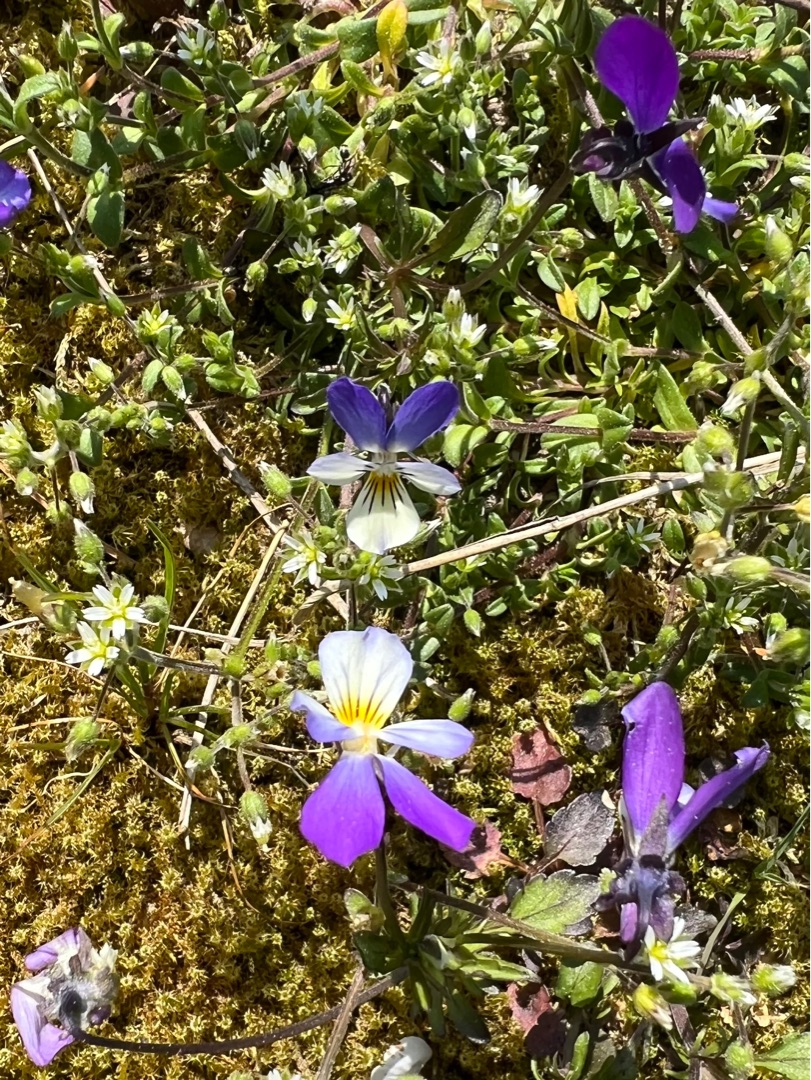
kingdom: Plantae
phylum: Tracheophyta
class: Magnoliopsida
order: Malpighiales
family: Violaceae
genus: Viola
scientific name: Viola tricolor
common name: Stedmoderblomst
